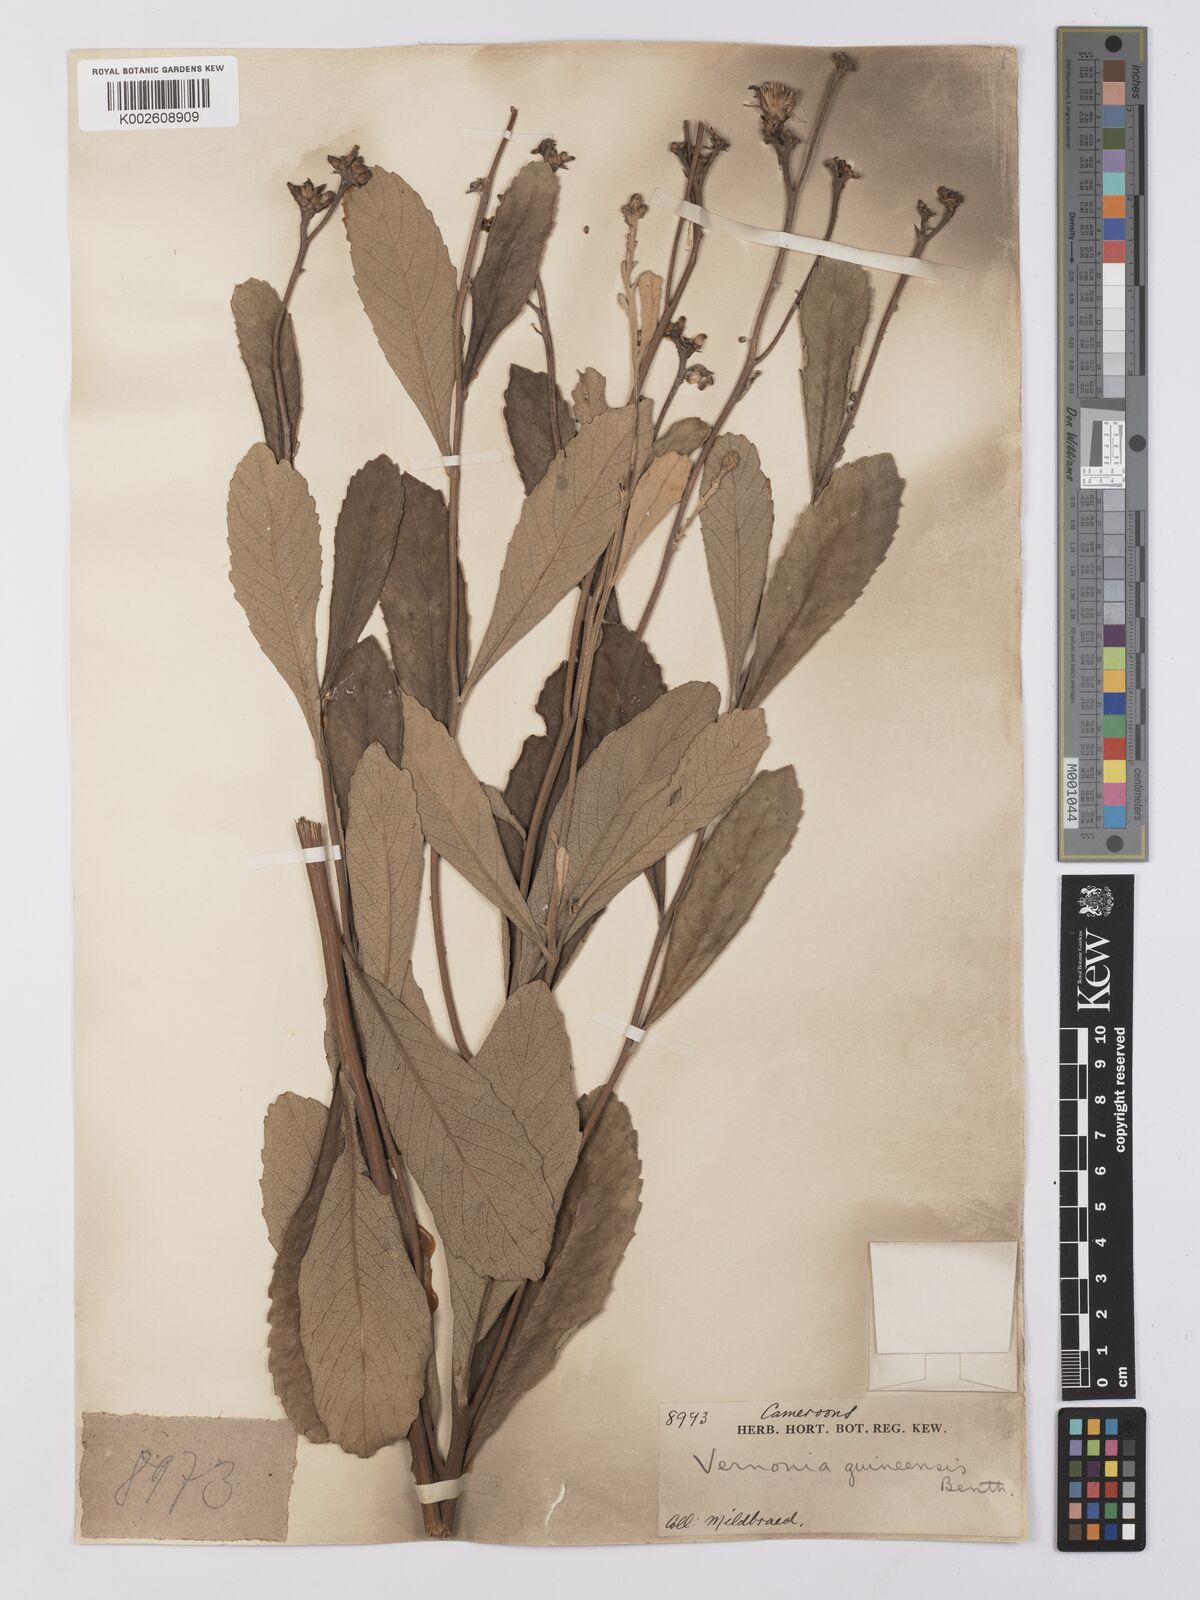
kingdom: Plantae
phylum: Tracheophyta
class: Magnoliopsida
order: Asterales
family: Asteraceae
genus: Baccharoides
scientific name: Baccharoides guineensis
